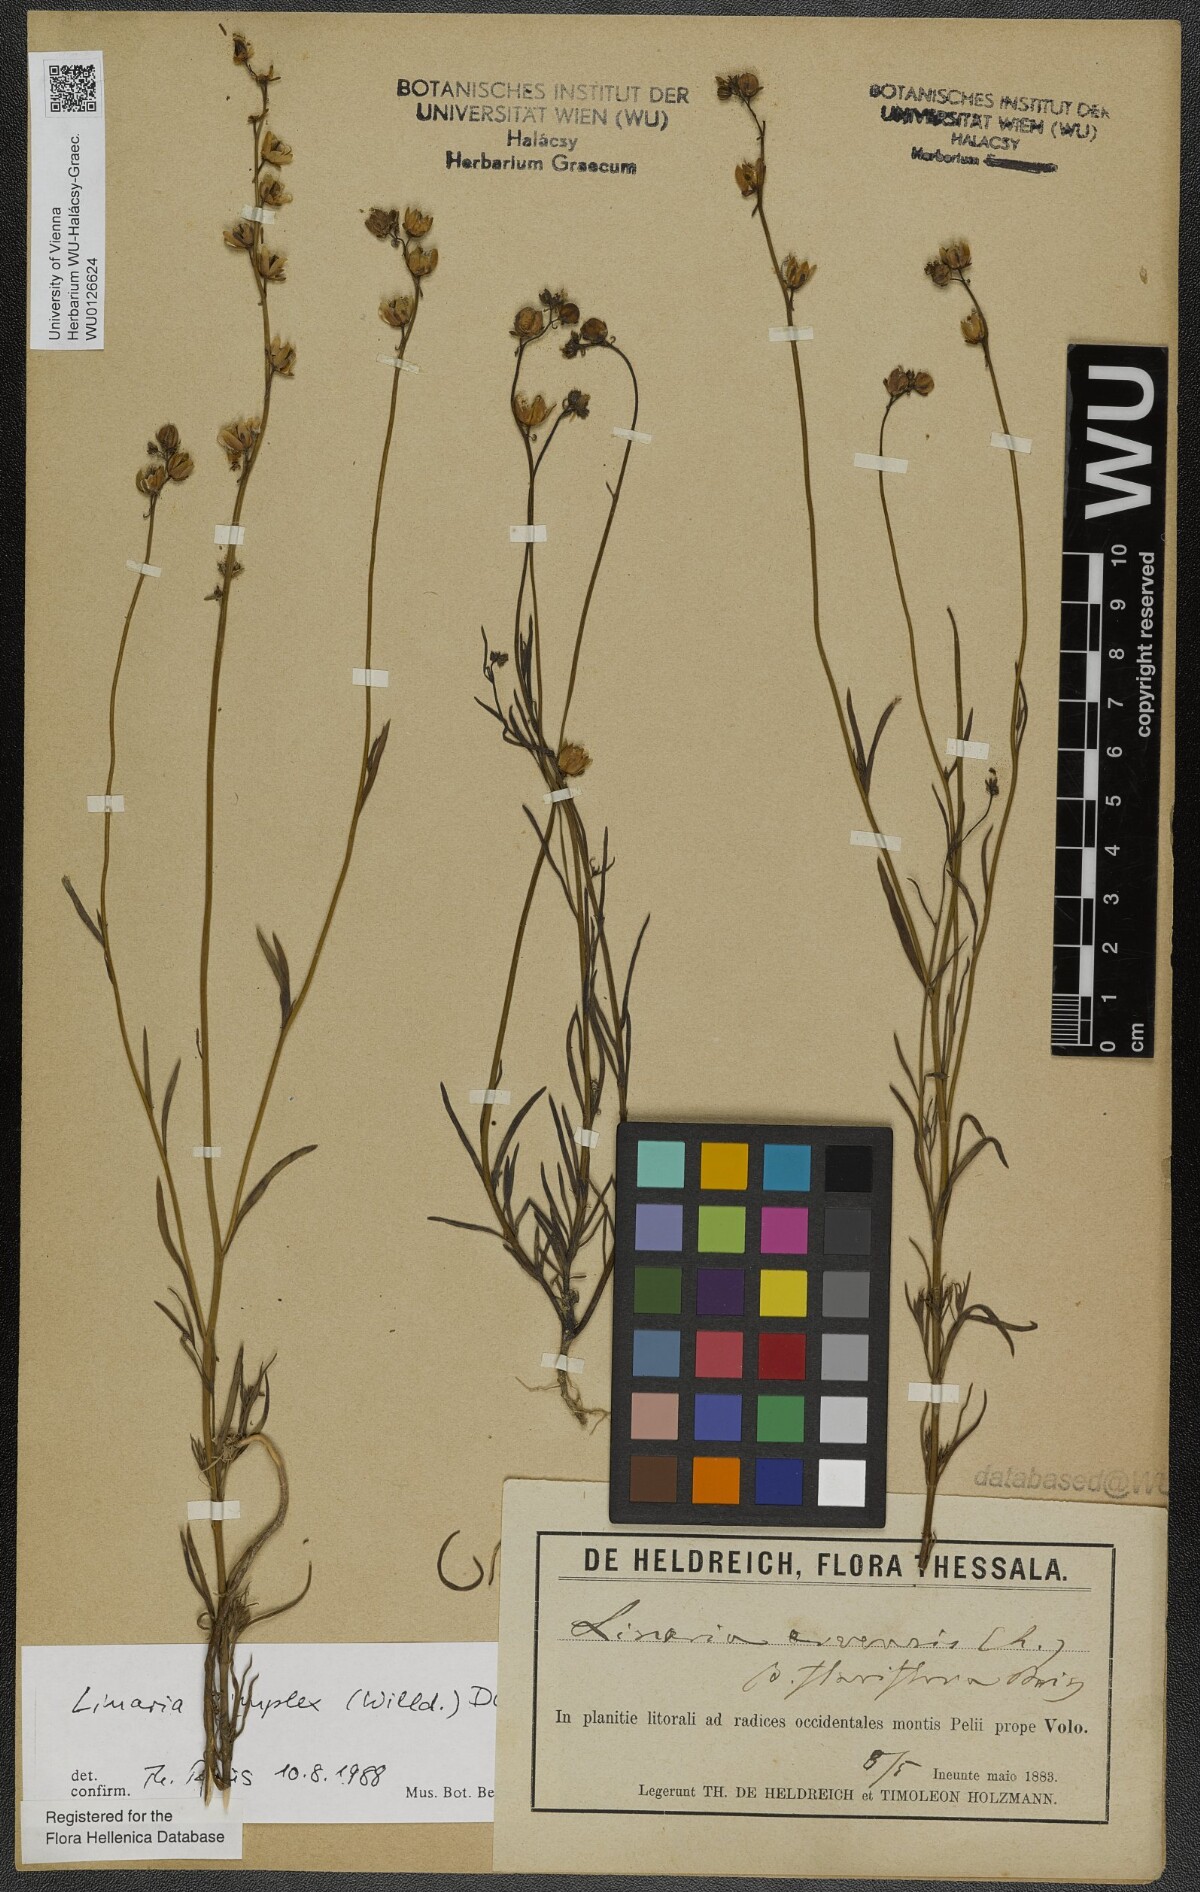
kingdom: Plantae
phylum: Tracheophyta
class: Magnoliopsida
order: Lamiales
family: Plantaginaceae
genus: Linaria
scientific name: Linaria simplex
